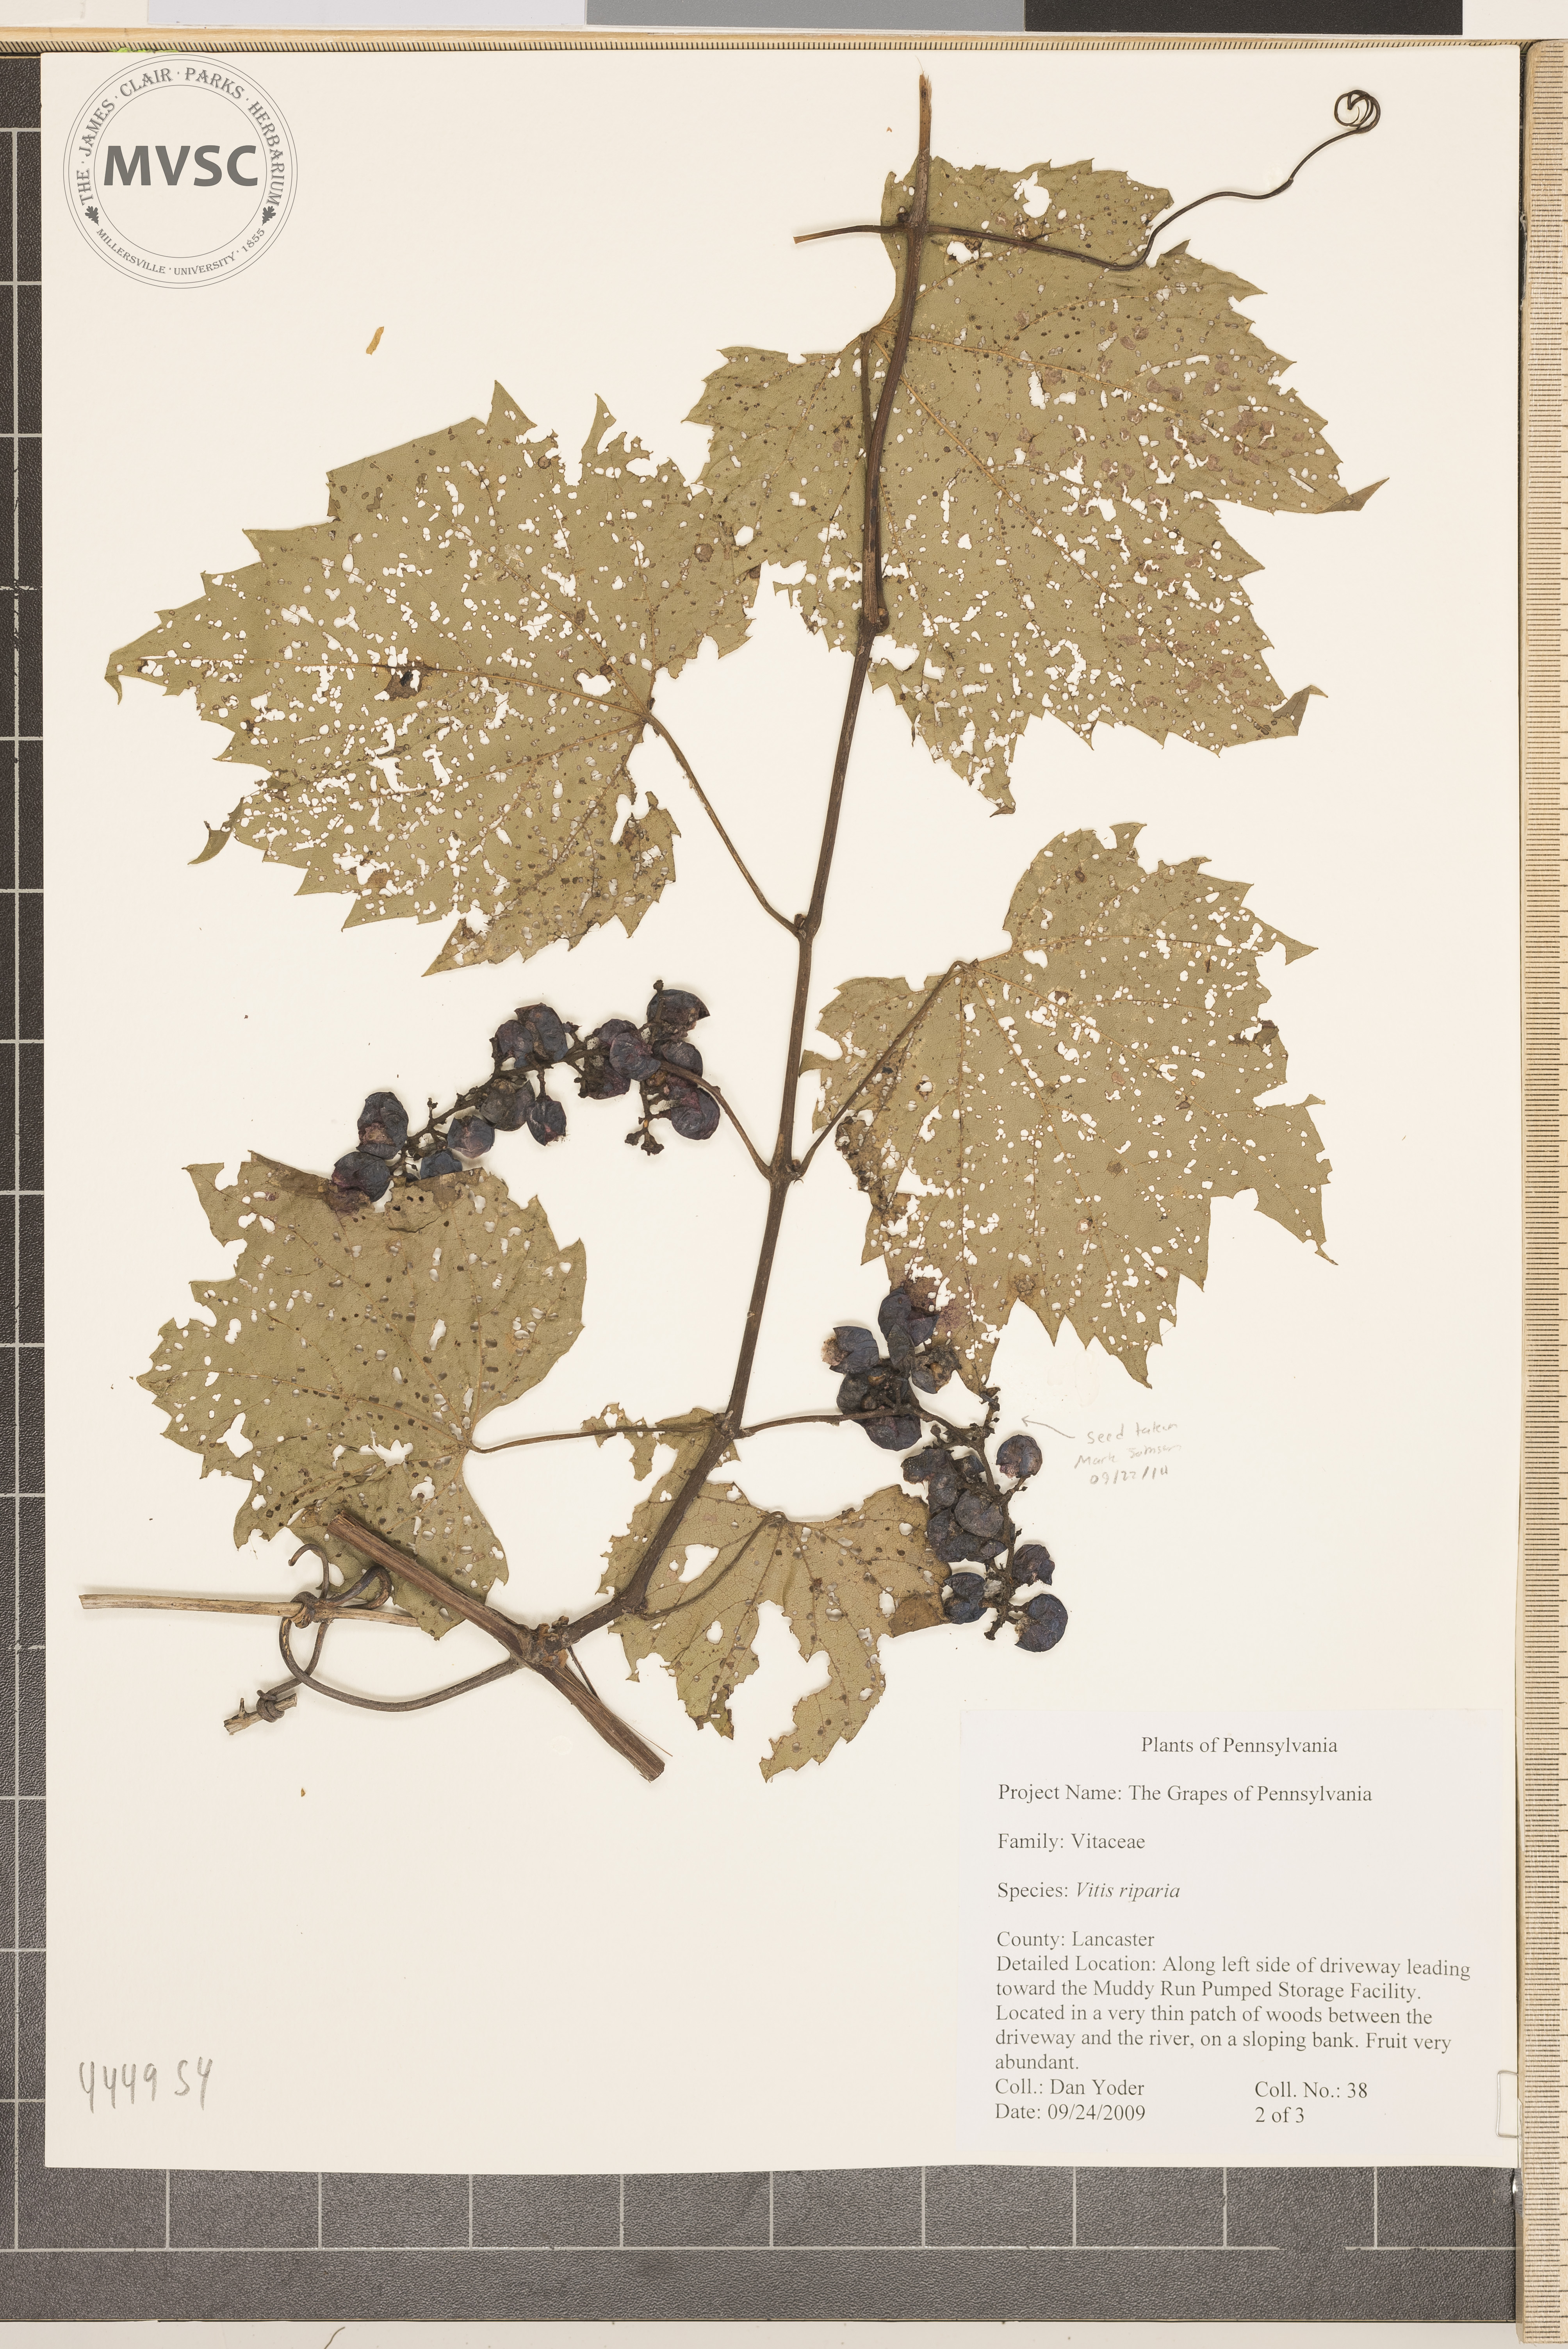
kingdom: Plantae
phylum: Tracheophyta
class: Magnoliopsida
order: Vitales
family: Vitaceae
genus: Vitis
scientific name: Vitis riparia
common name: Riverbank grape
